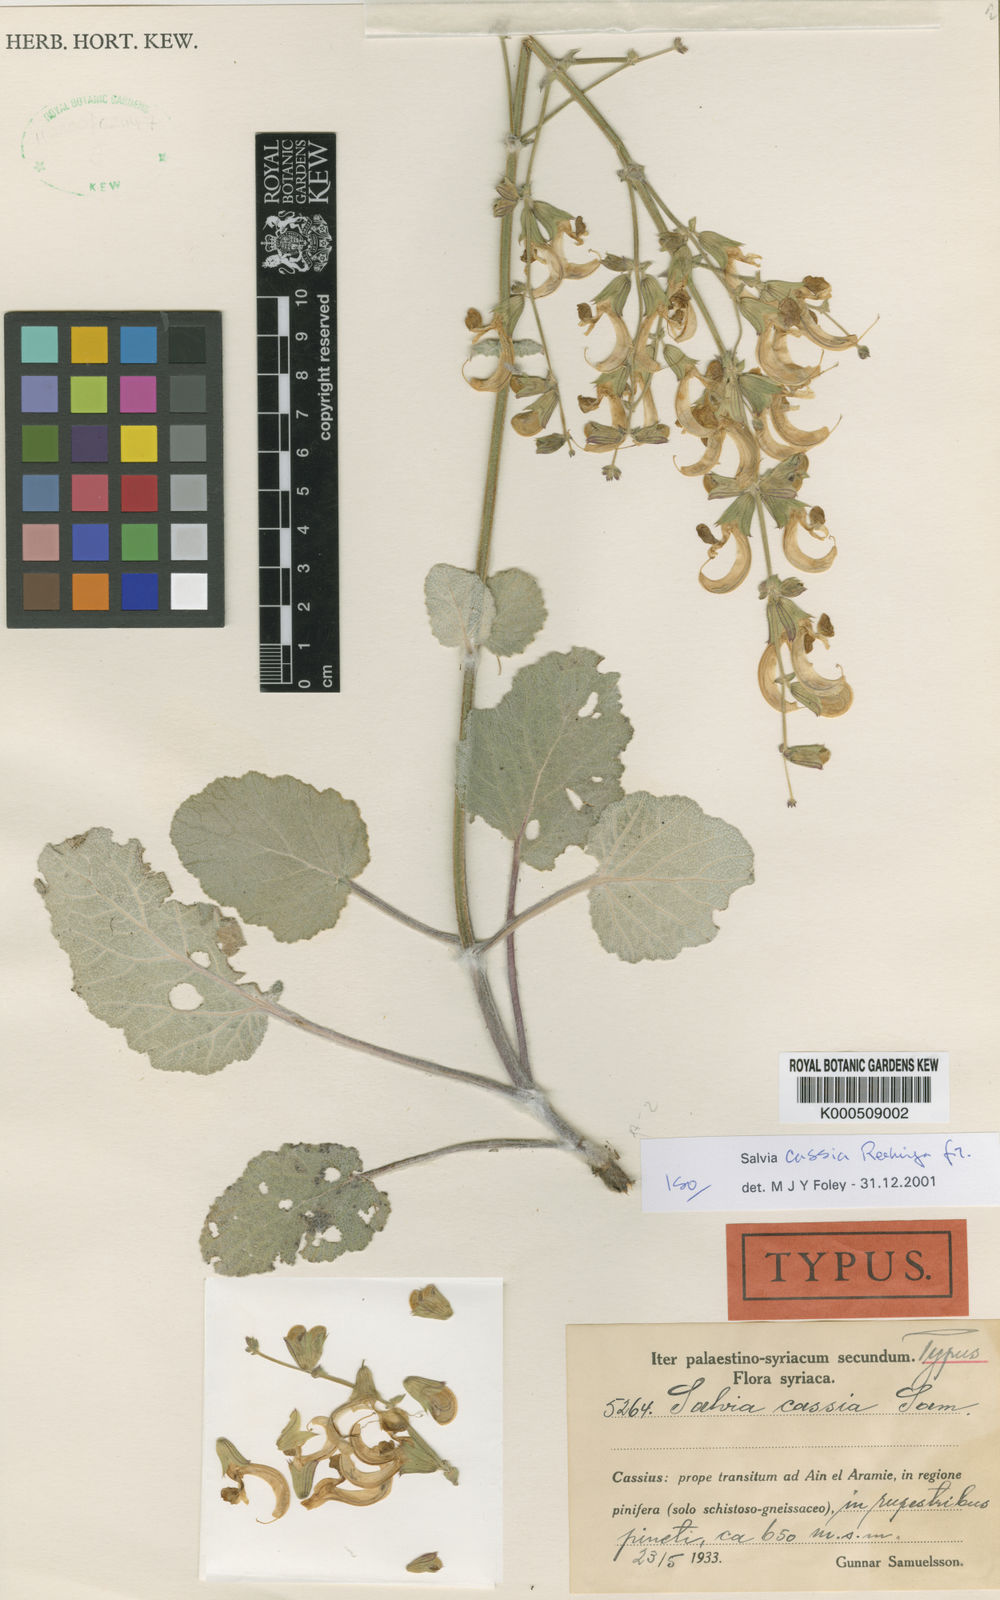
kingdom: Plantae
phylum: Tracheophyta
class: Magnoliopsida
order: Lamiales
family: Lamiaceae
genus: Salvia
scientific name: Salvia cassia
